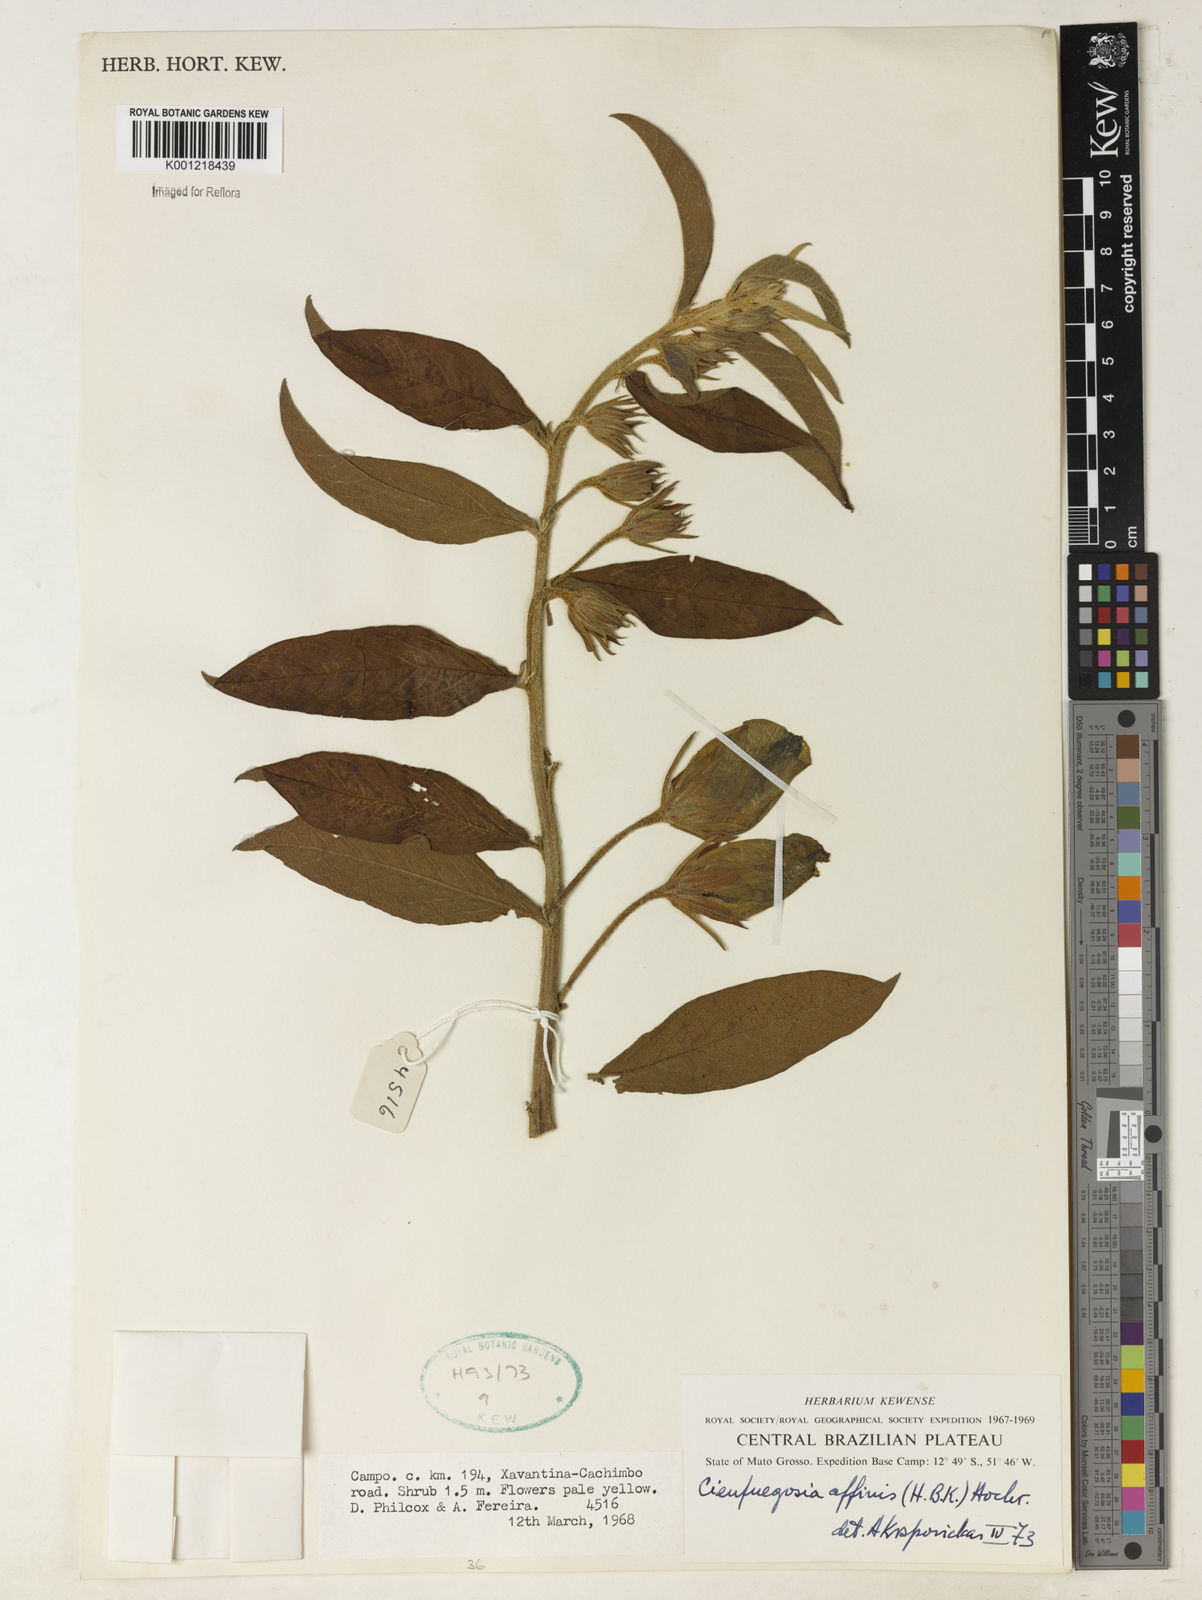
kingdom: Plantae
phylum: Tracheophyta
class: Magnoliopsida
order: Malvales
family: Malvaceae
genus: Cienfuegosia
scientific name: Cienfuegosia affinis
